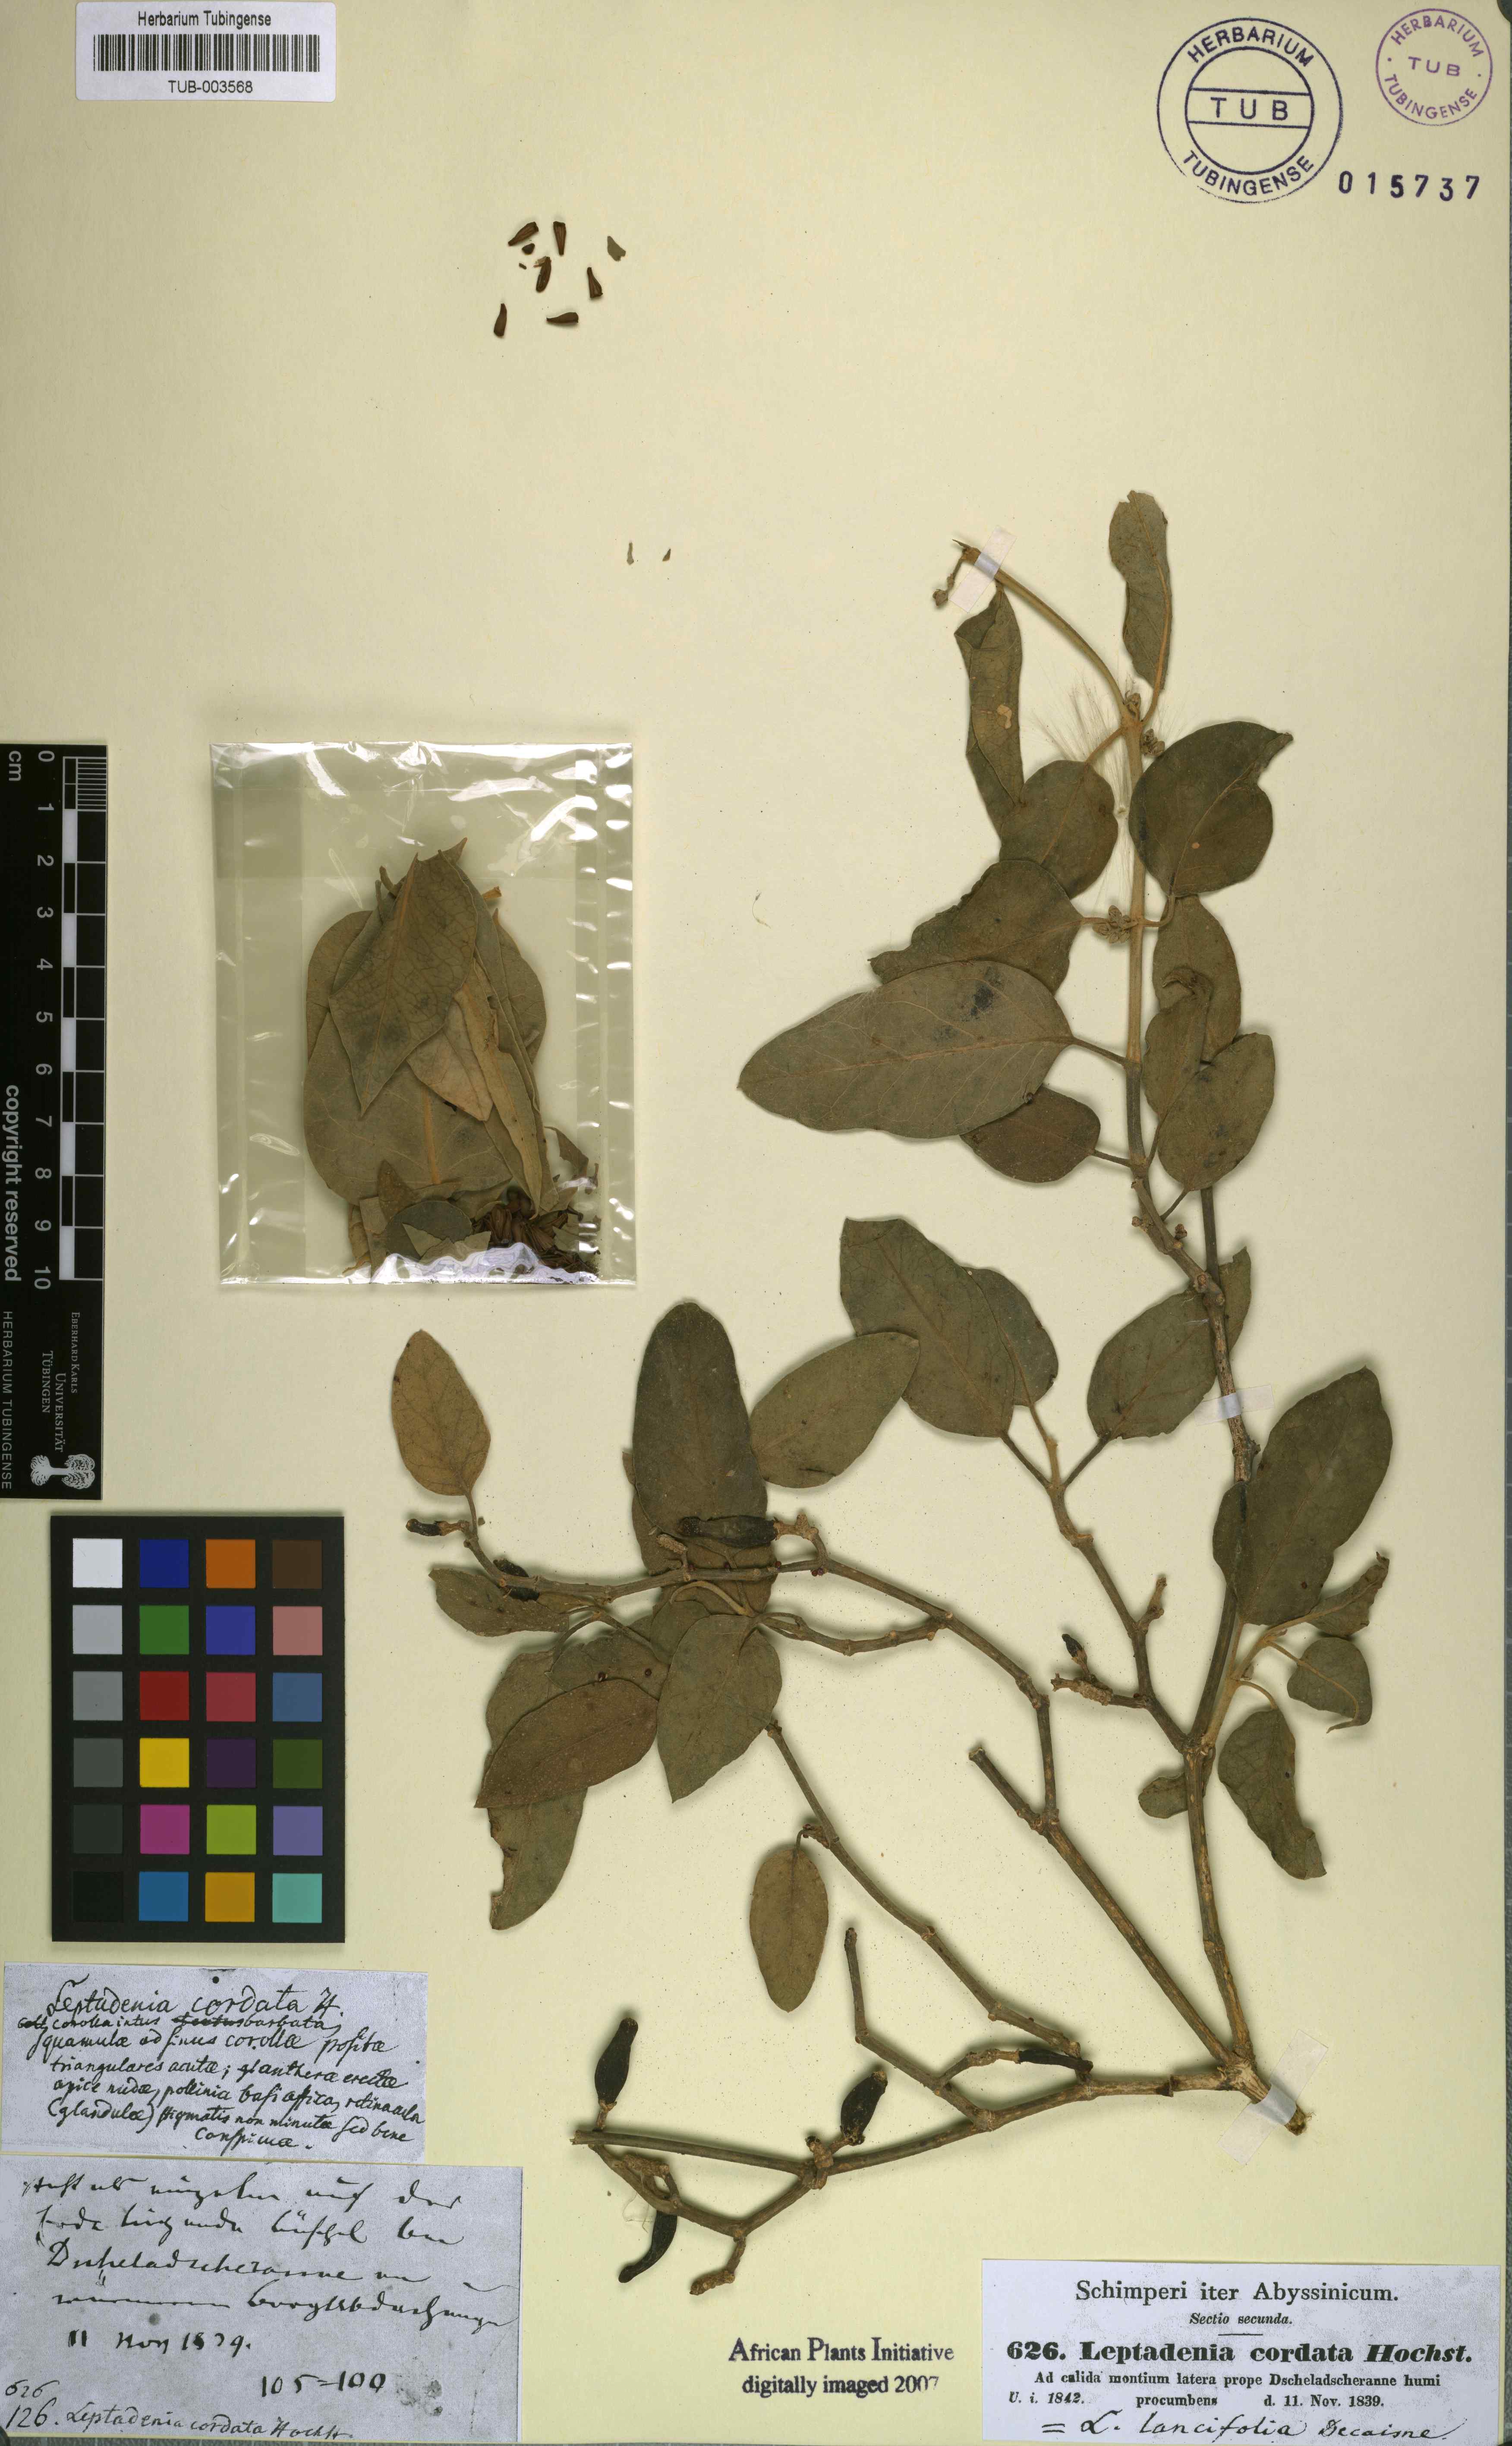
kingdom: Plantae
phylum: Tracheophyta
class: Magnoliopsida
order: Gentianales
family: Apocynaceae
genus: Leptadenia
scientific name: Leptadenia lanceolata
